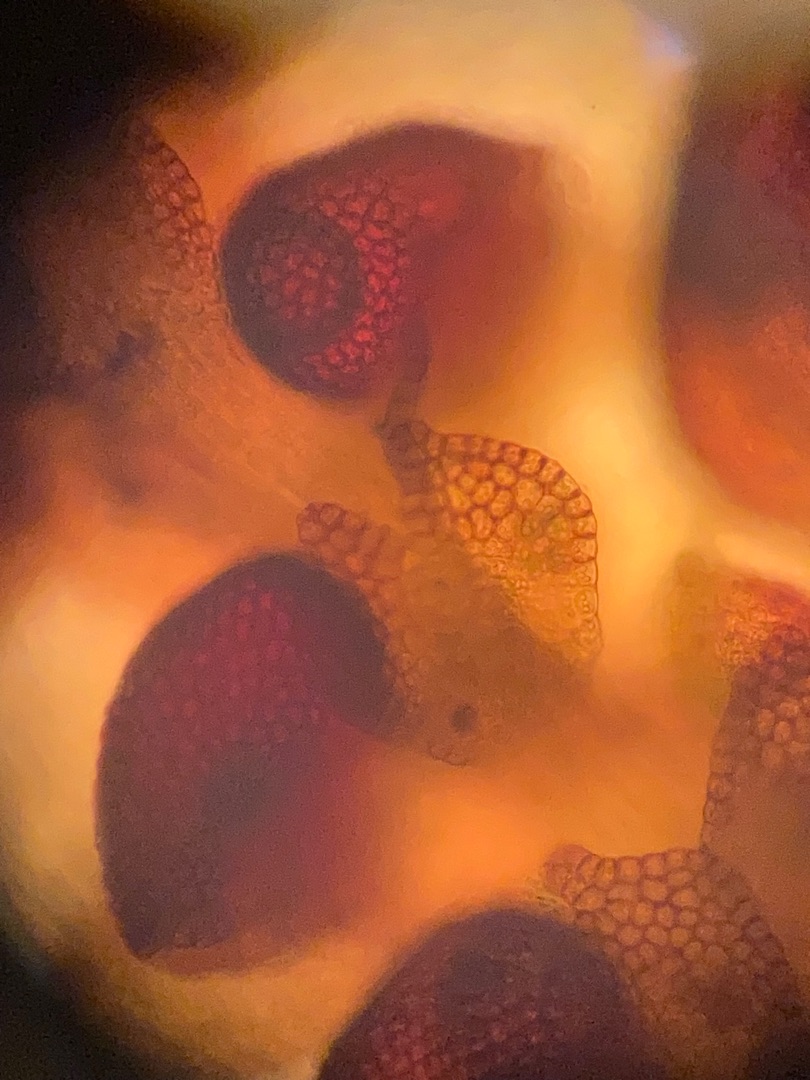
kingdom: Plantae
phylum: Marchantiophyta
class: Jungermanniopsida
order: Porellales
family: Frullaniaceae
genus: Frullania
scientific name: Frullania dilatata
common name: Mat bronzemos
